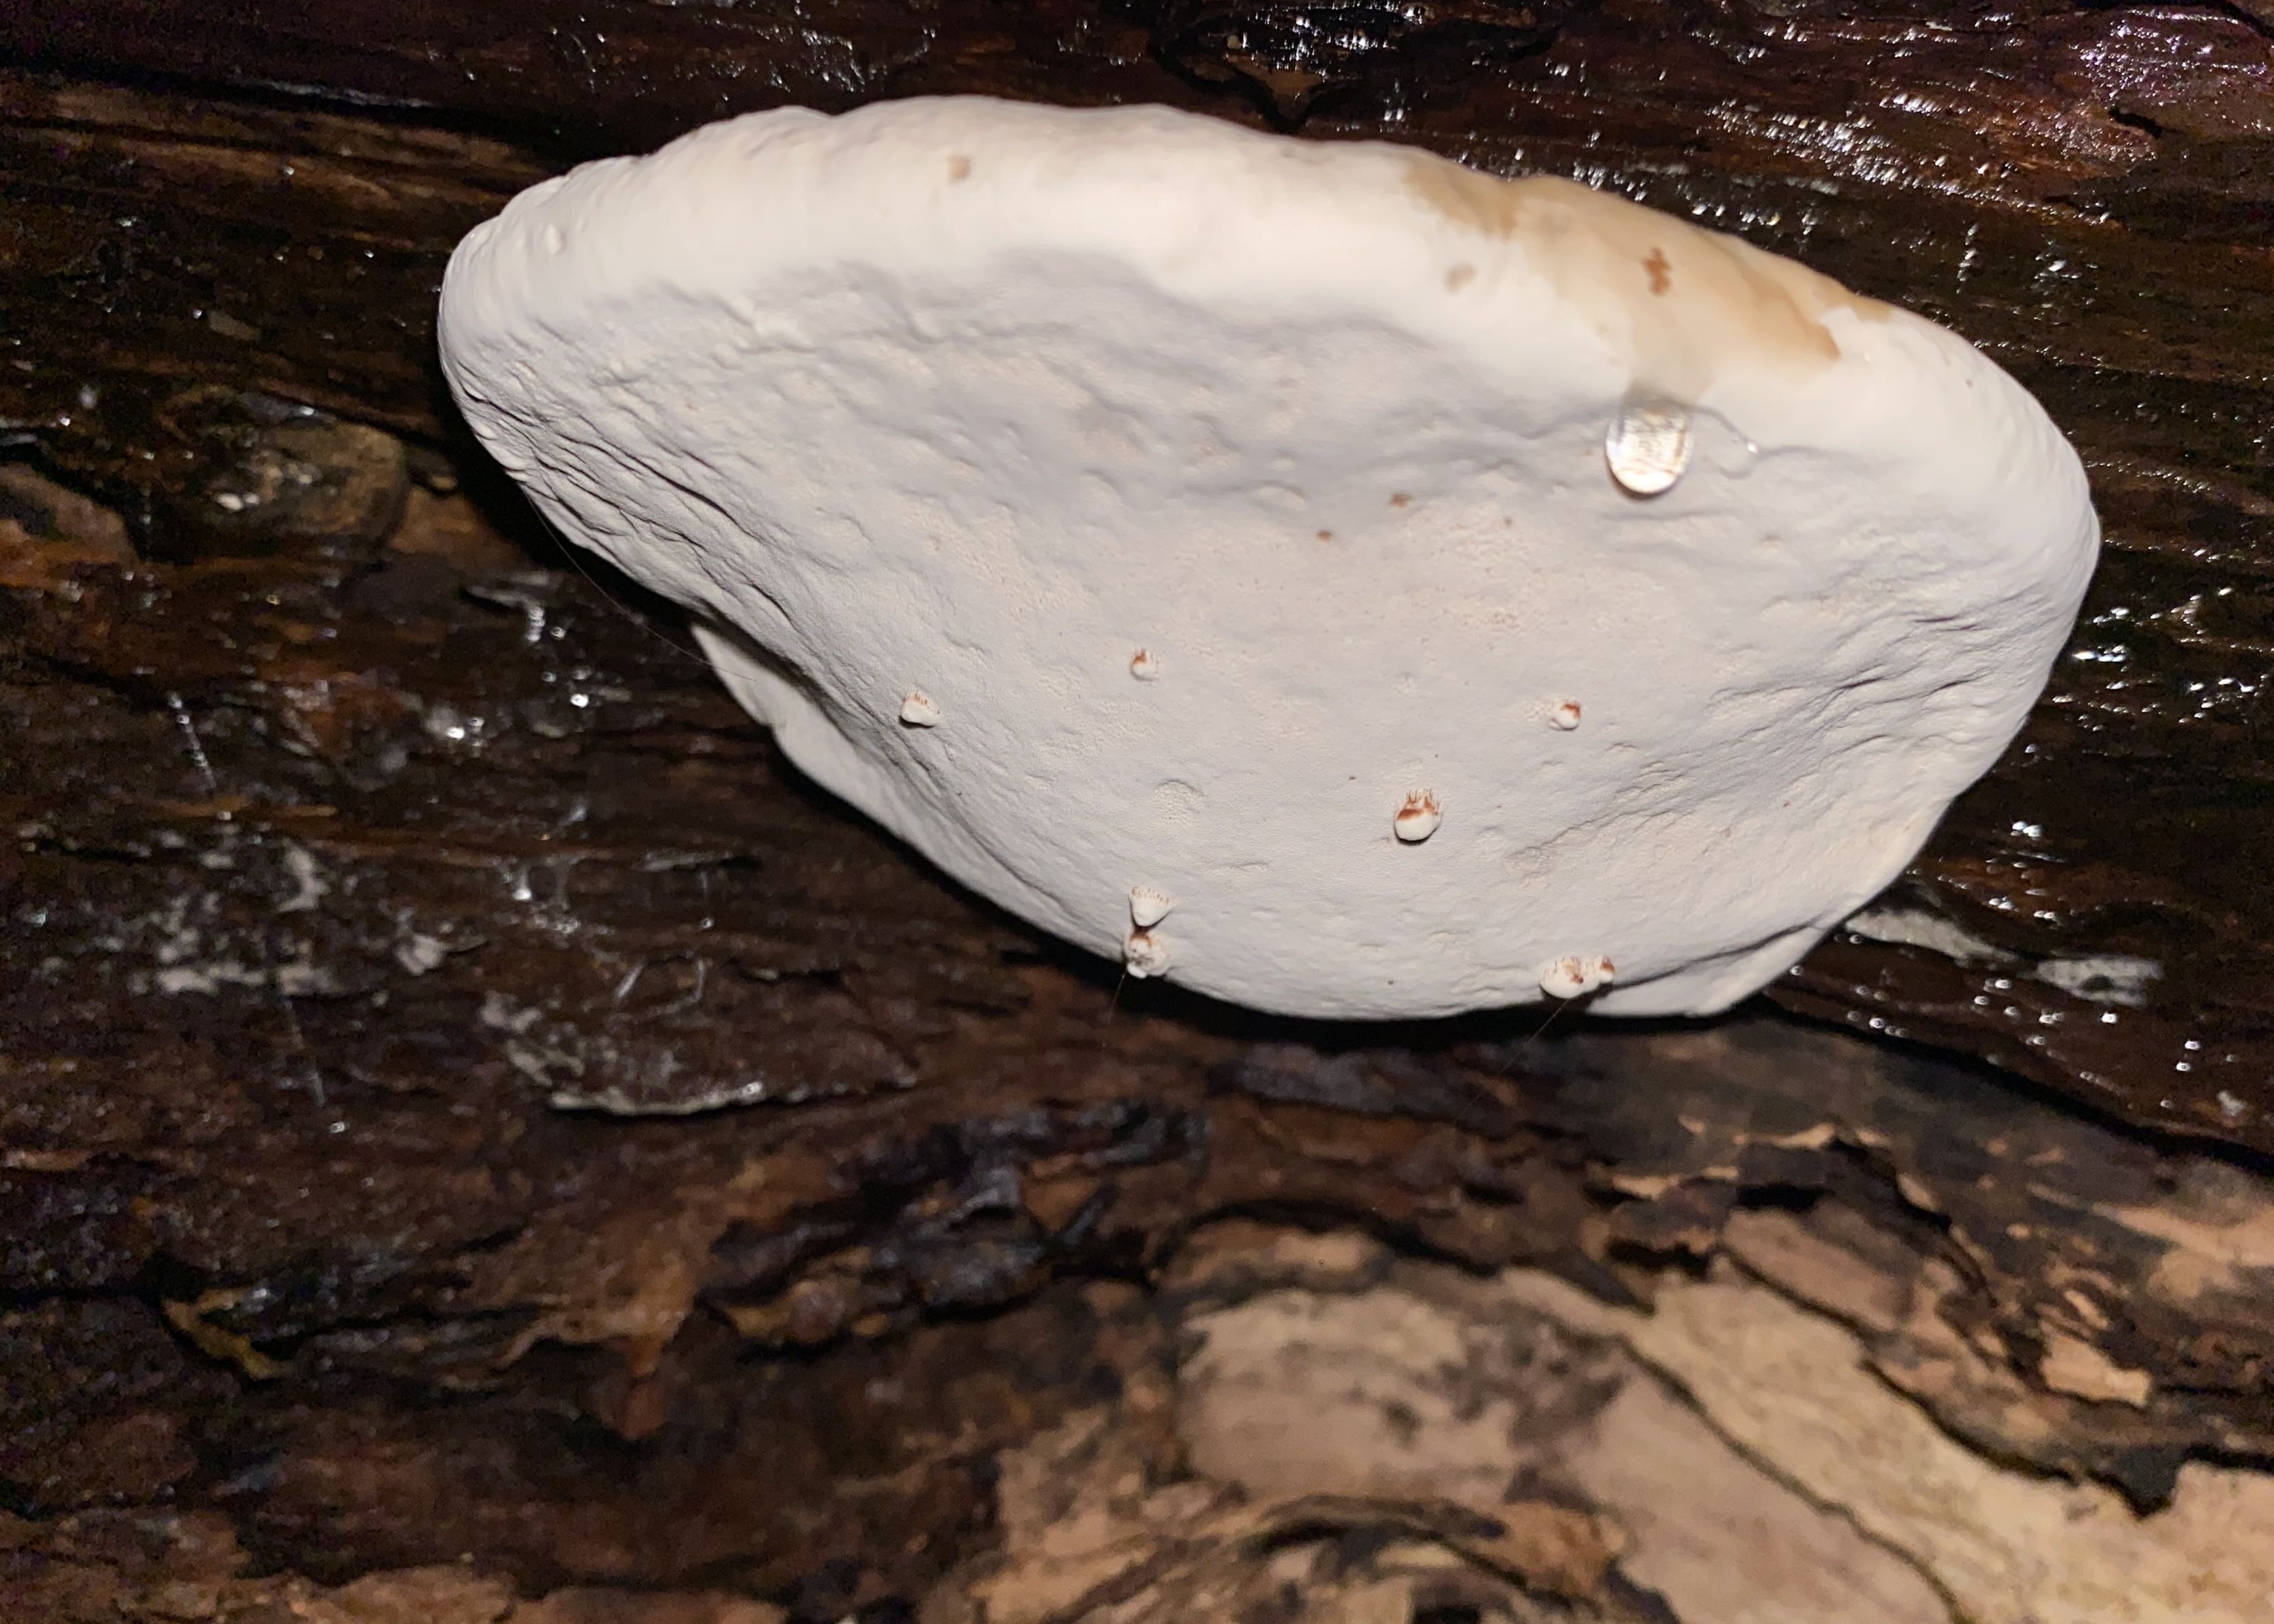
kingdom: Fungi
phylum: Basidiomycota
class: Agaricomycetes
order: Polyporales
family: Polyporaceae
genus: Ganoderma
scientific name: Ganoderma applanatum
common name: flad lakporesvamp
